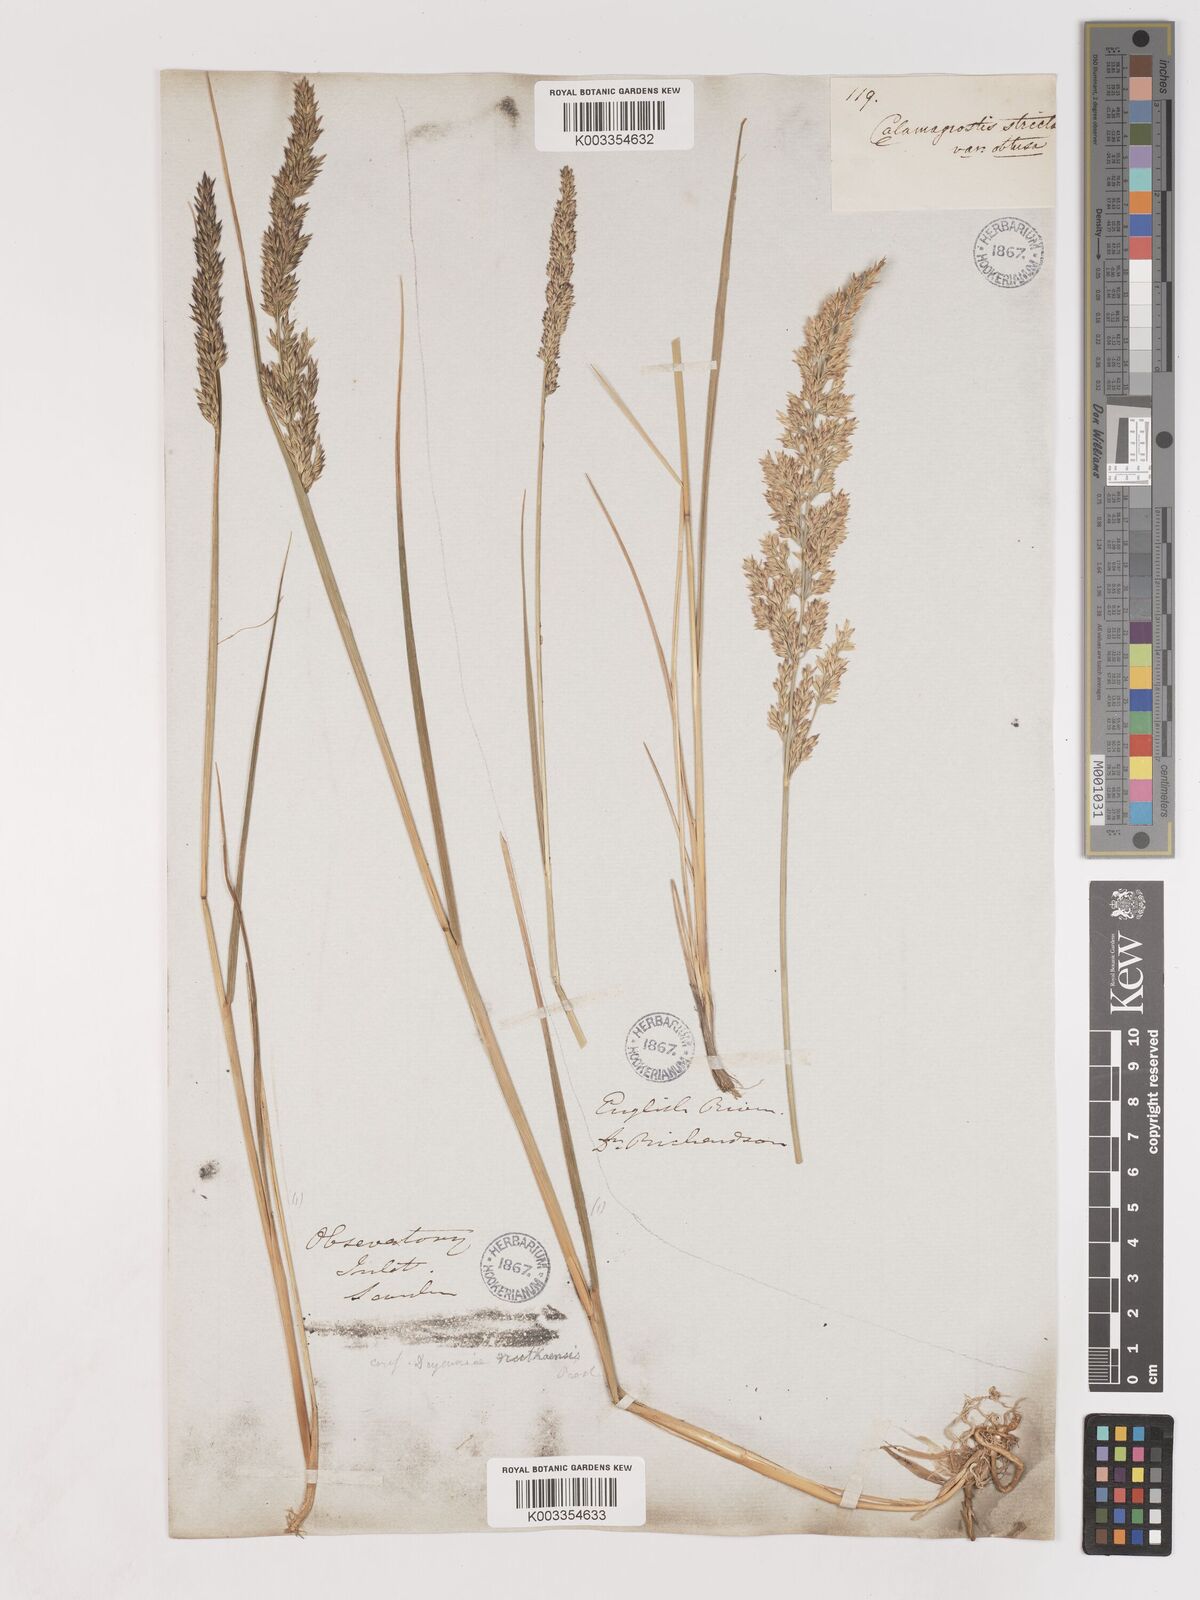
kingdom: Plantae
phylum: Tracheophyta
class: Liliopsida
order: Poales
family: Poaceae
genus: Calamagrostis
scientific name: Calamagrostis nutkaensis
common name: Pacific reed grass
